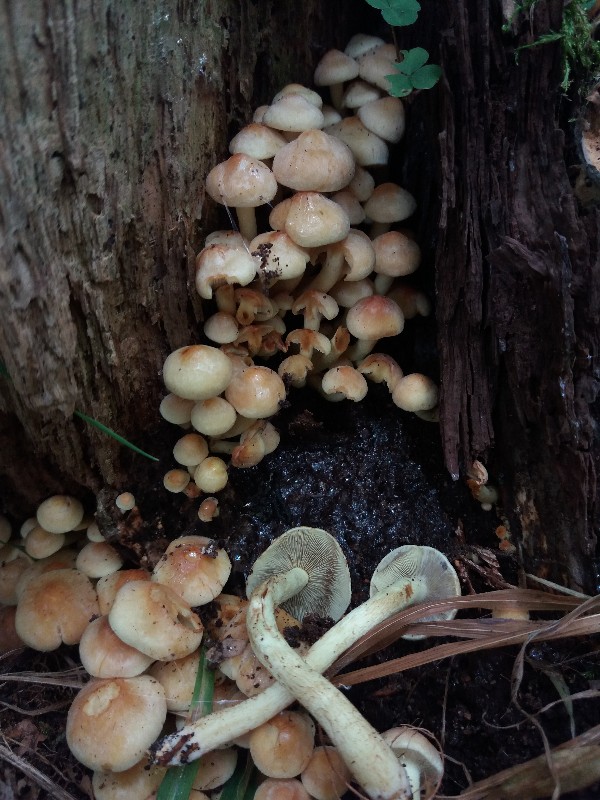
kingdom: Fungi
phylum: Basidiomycota
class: Agaricomycetes
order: Agaricales
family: Strophariaceae
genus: Hypholoma
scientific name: Hypholoma fasciculare
